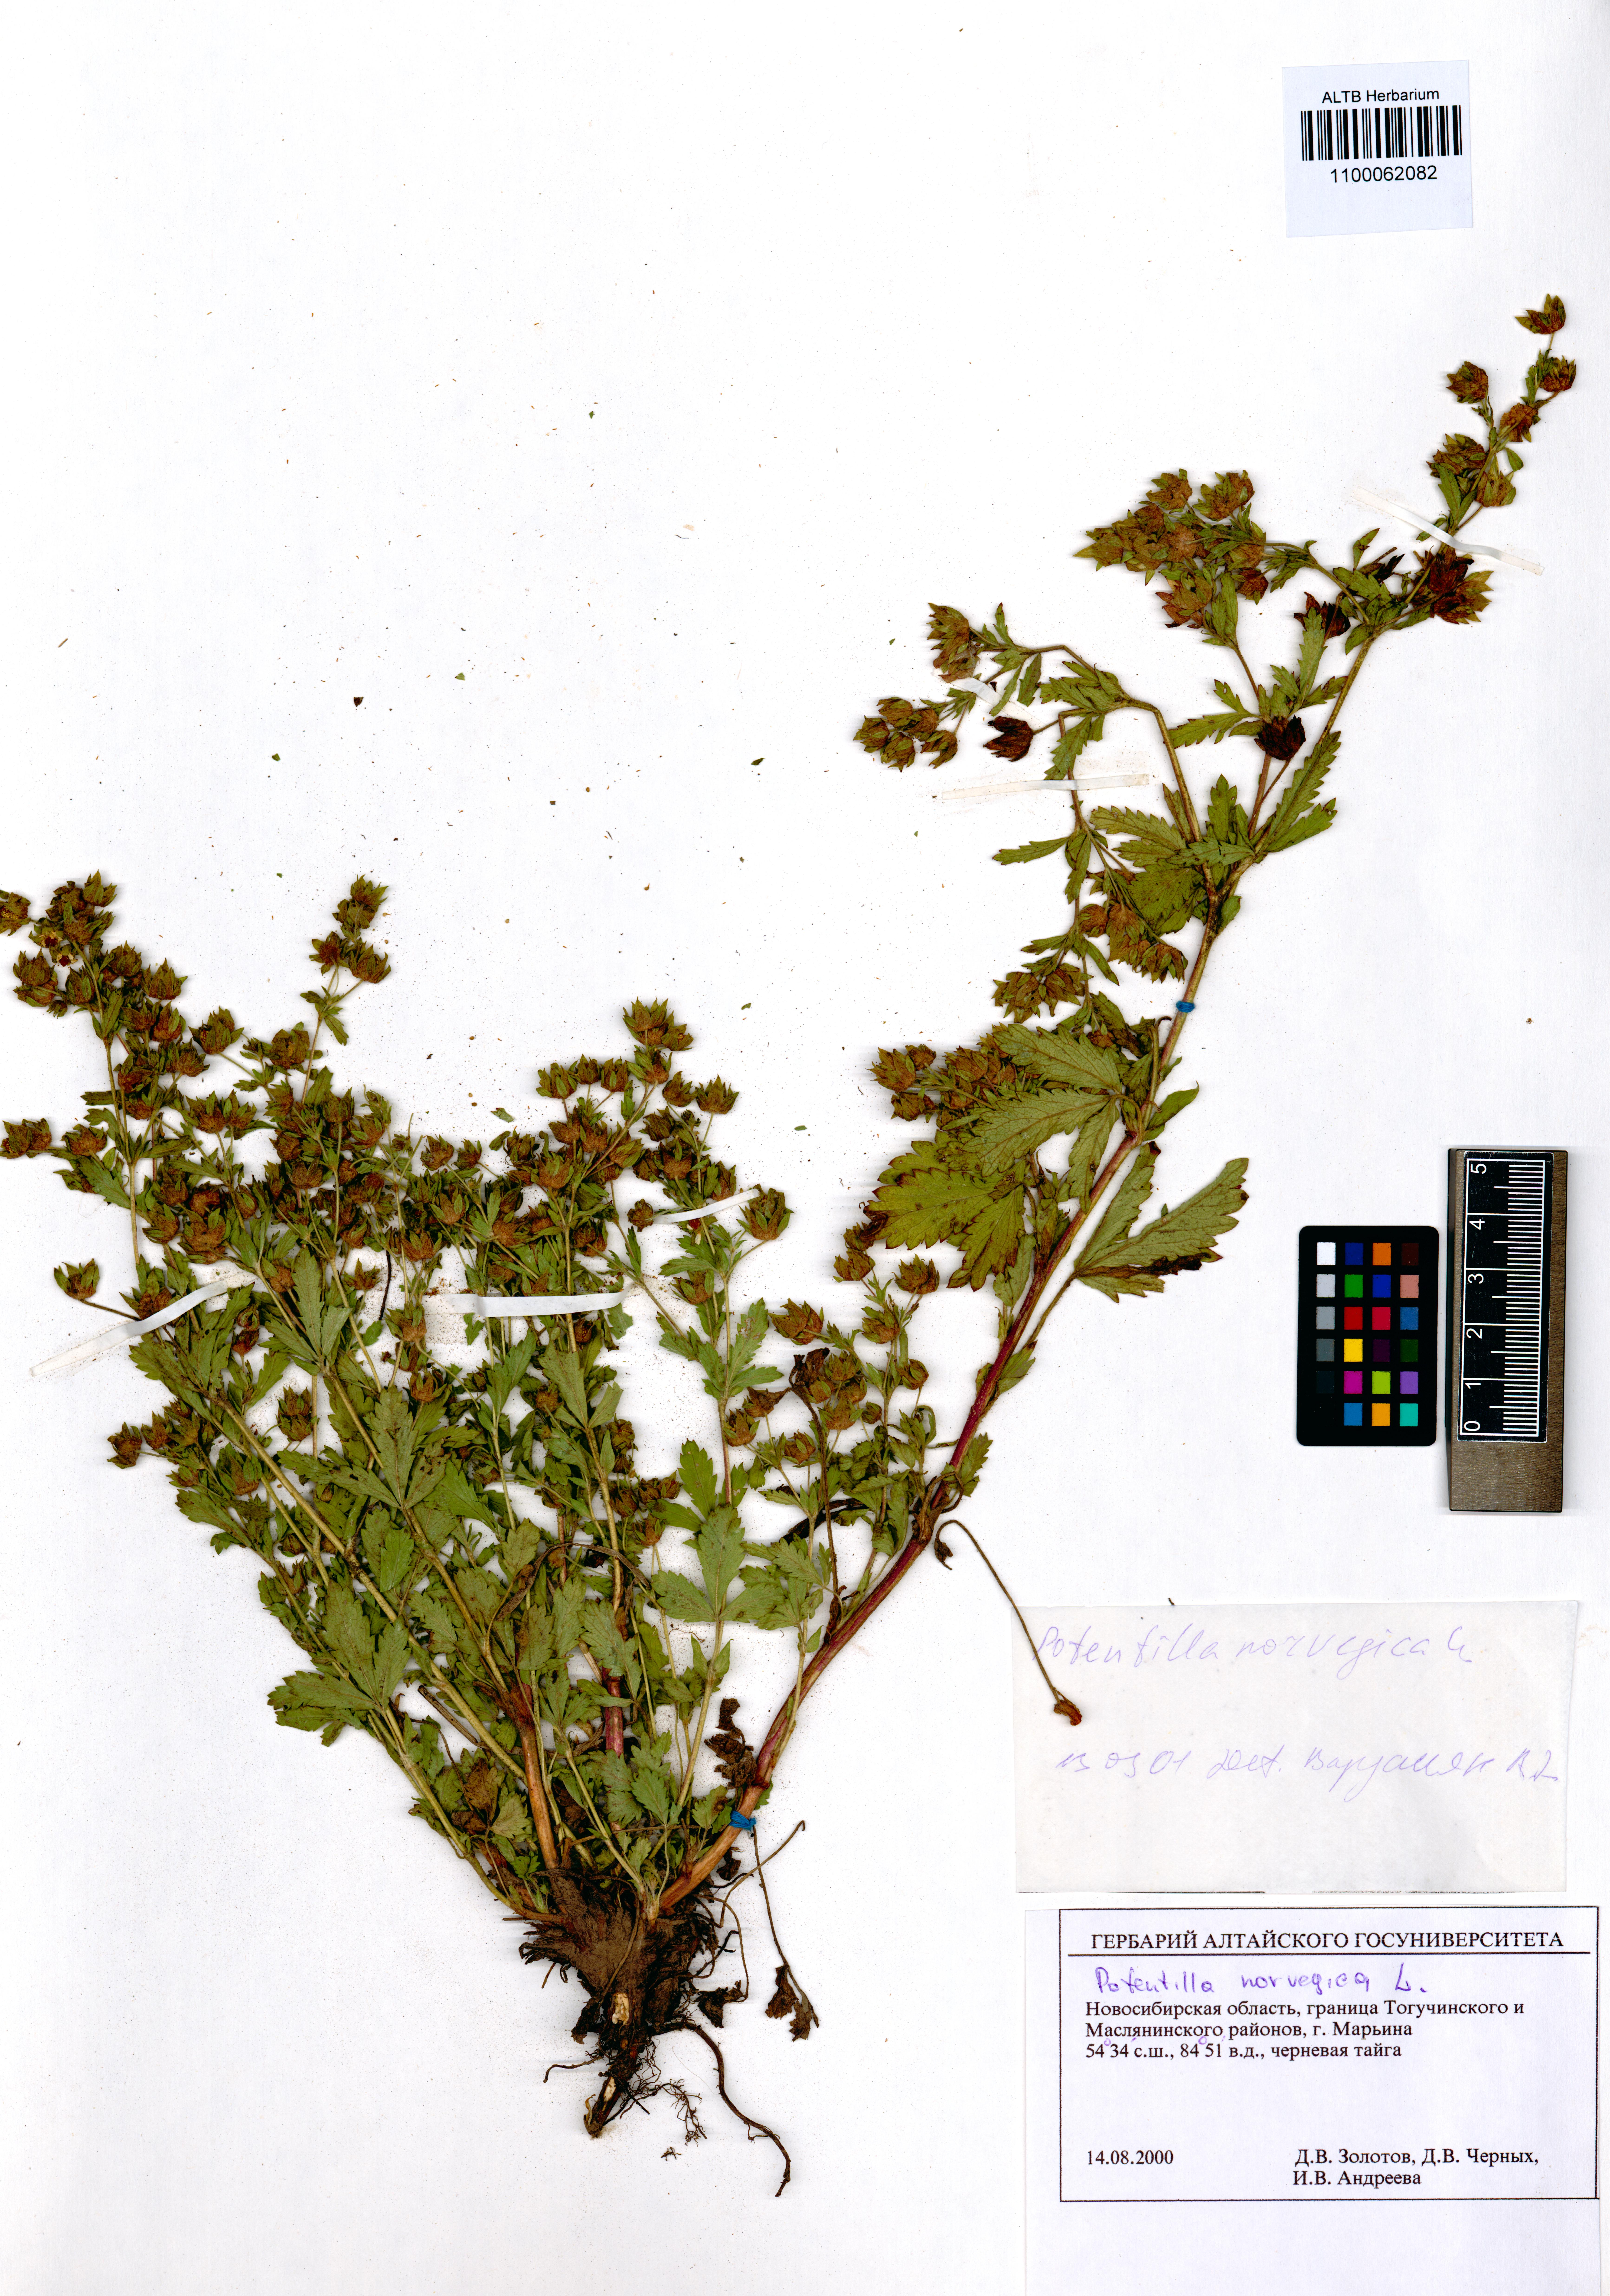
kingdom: Plantae
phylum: Tracheophyta
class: Magnoliopsida
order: Rosales
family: Rosaceae
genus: Potentilla
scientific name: Potentilla norvegica
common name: Ternate-leaved cinquefoil
